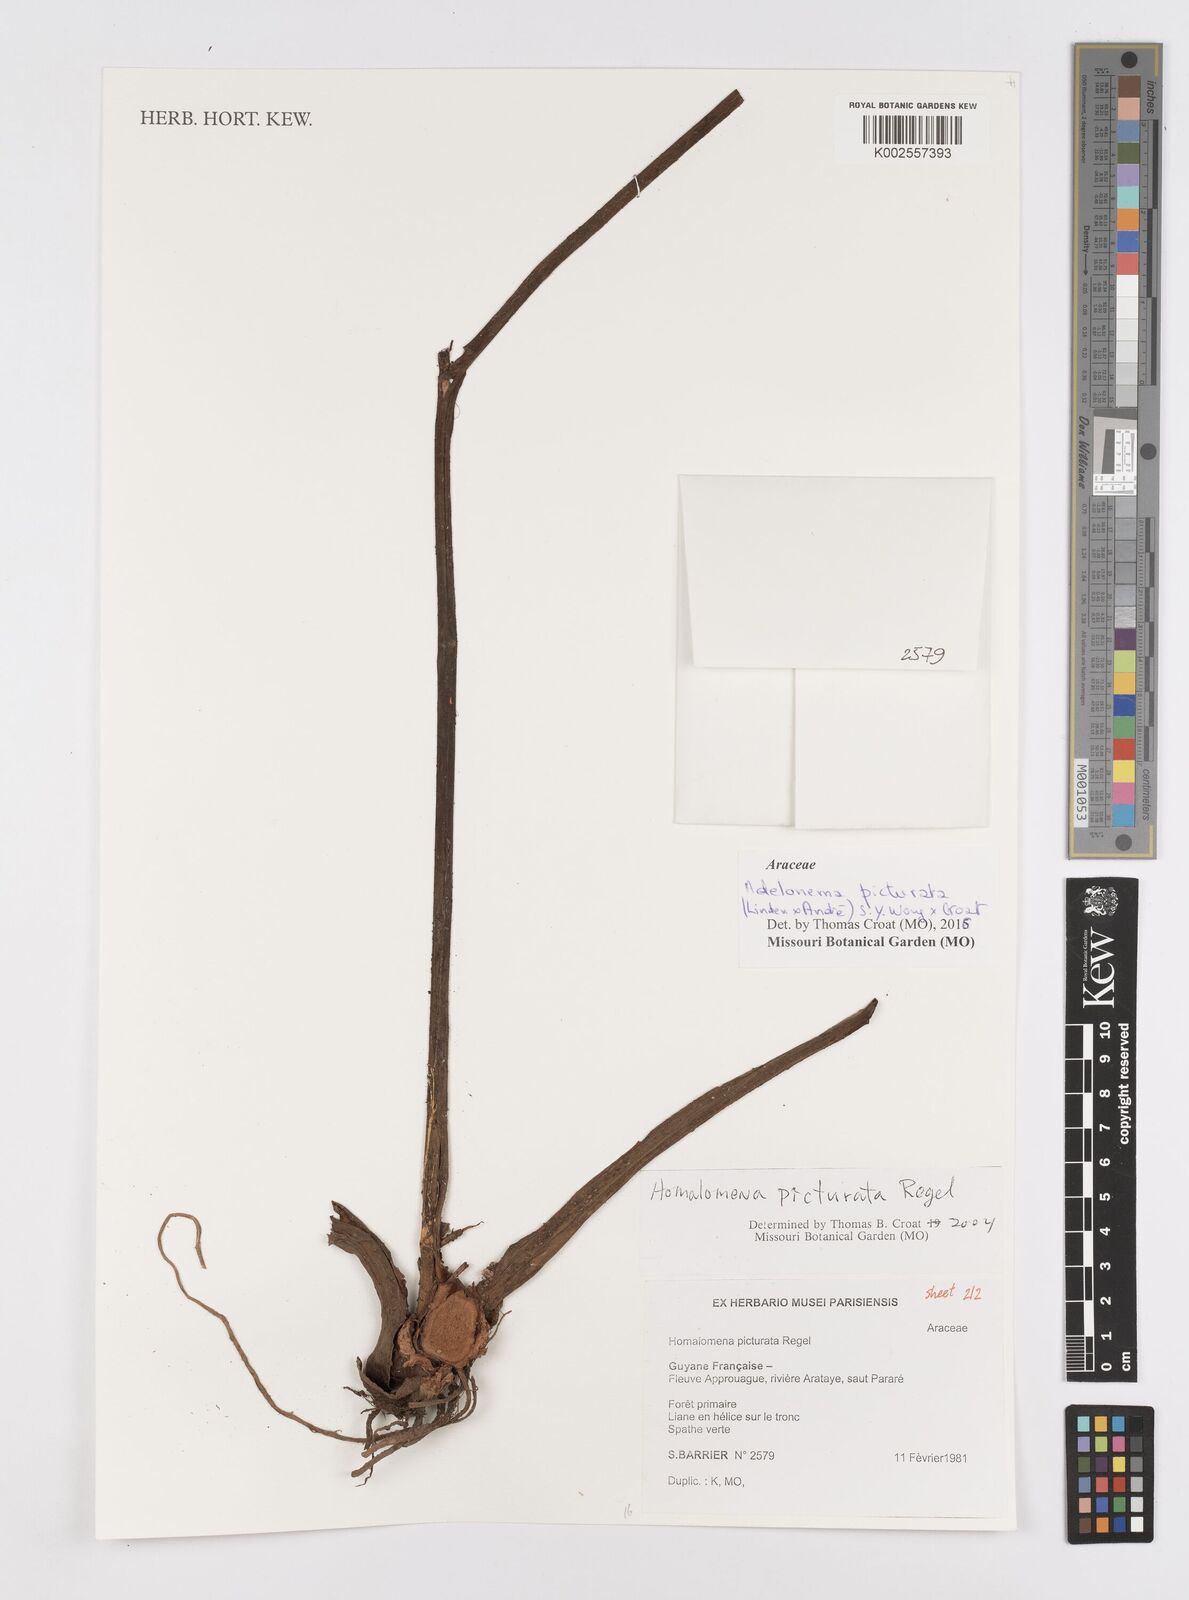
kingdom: Plantae
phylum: Tracheophyta
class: Liliopsida
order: Alismatales
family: Araceae
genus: Adelonema
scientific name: Adelonema picturatum
